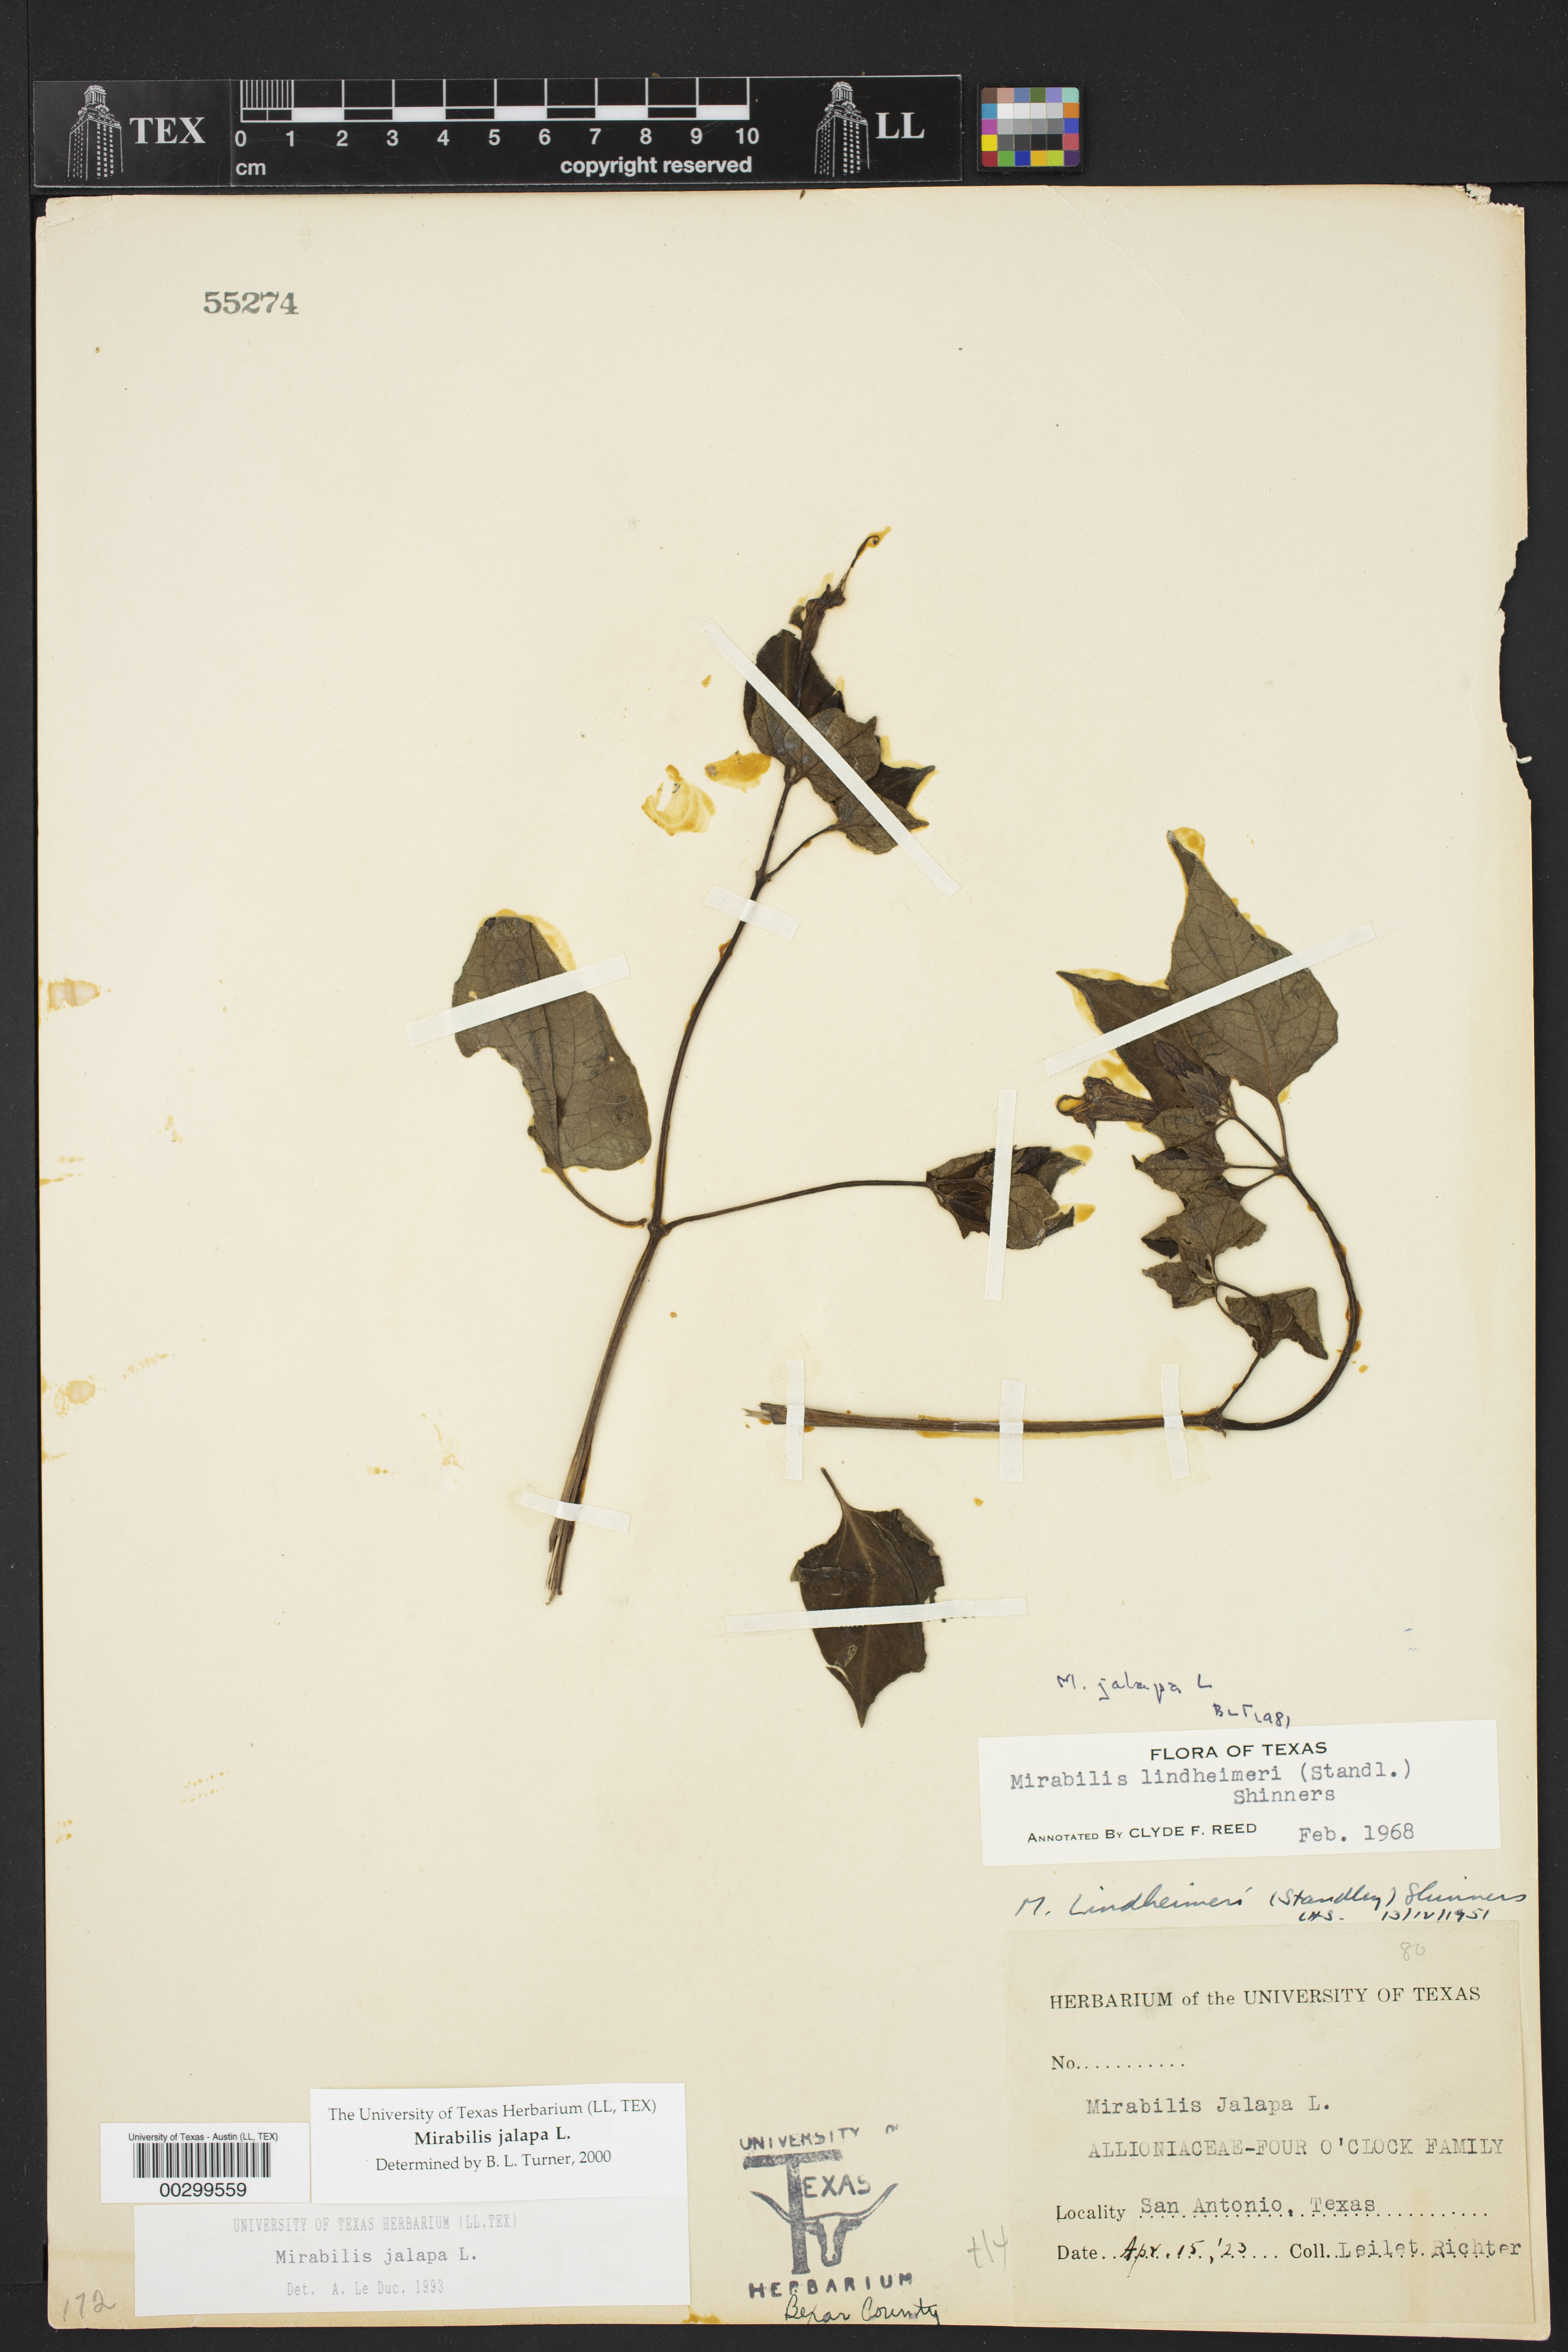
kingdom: Plantae
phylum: Tracheophyta
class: Magnoliopsida
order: Caryophyllales
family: Nyctaginaceae
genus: Mirabilis
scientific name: Mirabilis jalapa
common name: Marvel-of-peru
